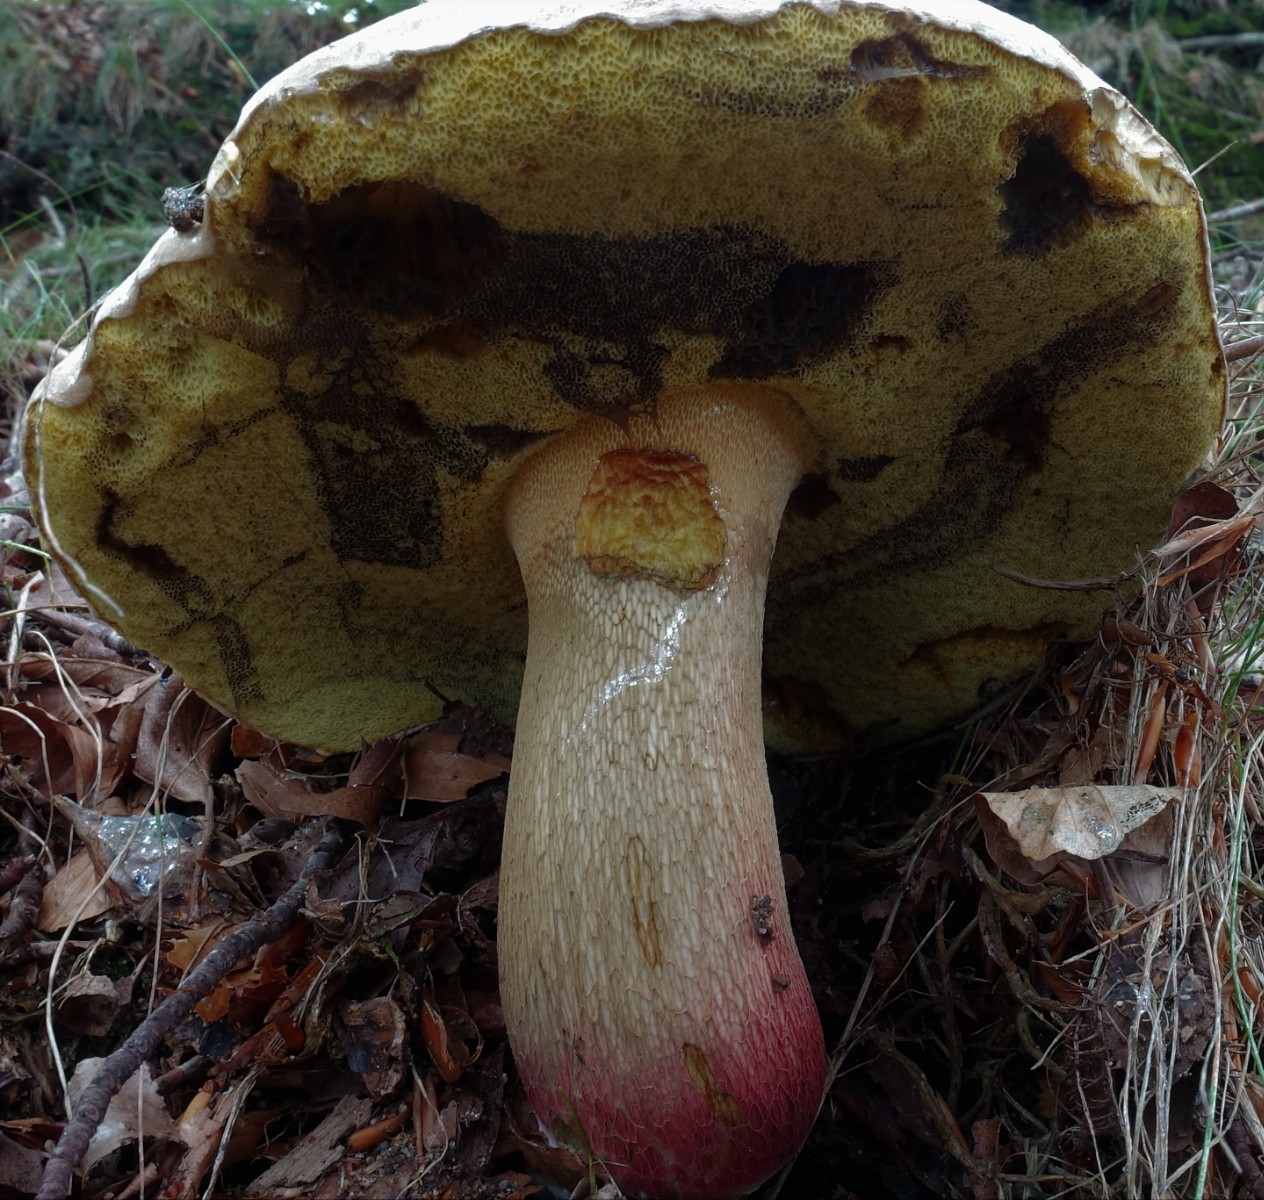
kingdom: Fungi
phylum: Basidiomycota
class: Agaricomycetes
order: Boletales
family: Boletaceae
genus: Caloboletus
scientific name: Caloboletus calopus
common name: skønfodet rørhat
